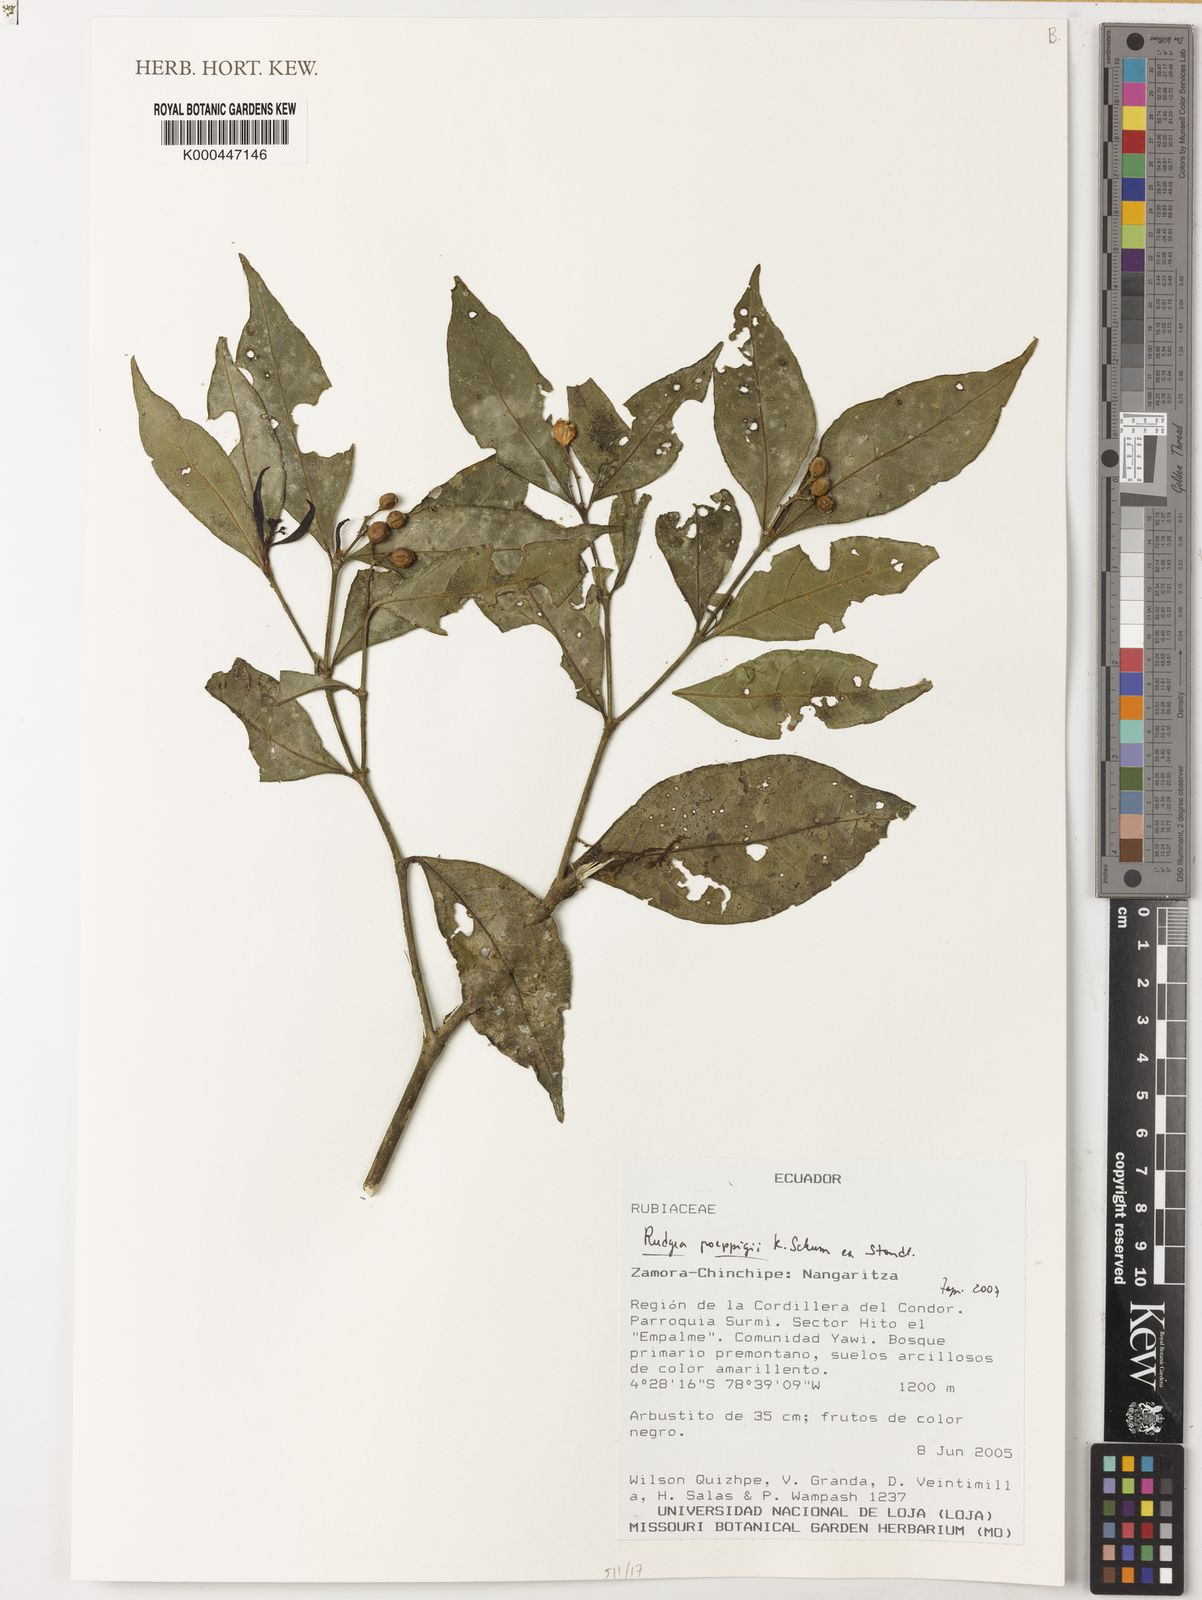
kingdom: Plantae
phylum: Tracheophyta
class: Magnoliopsida
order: Gentianales
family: Rubiaceae
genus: Rudgea
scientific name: Rudgea poeppigii
